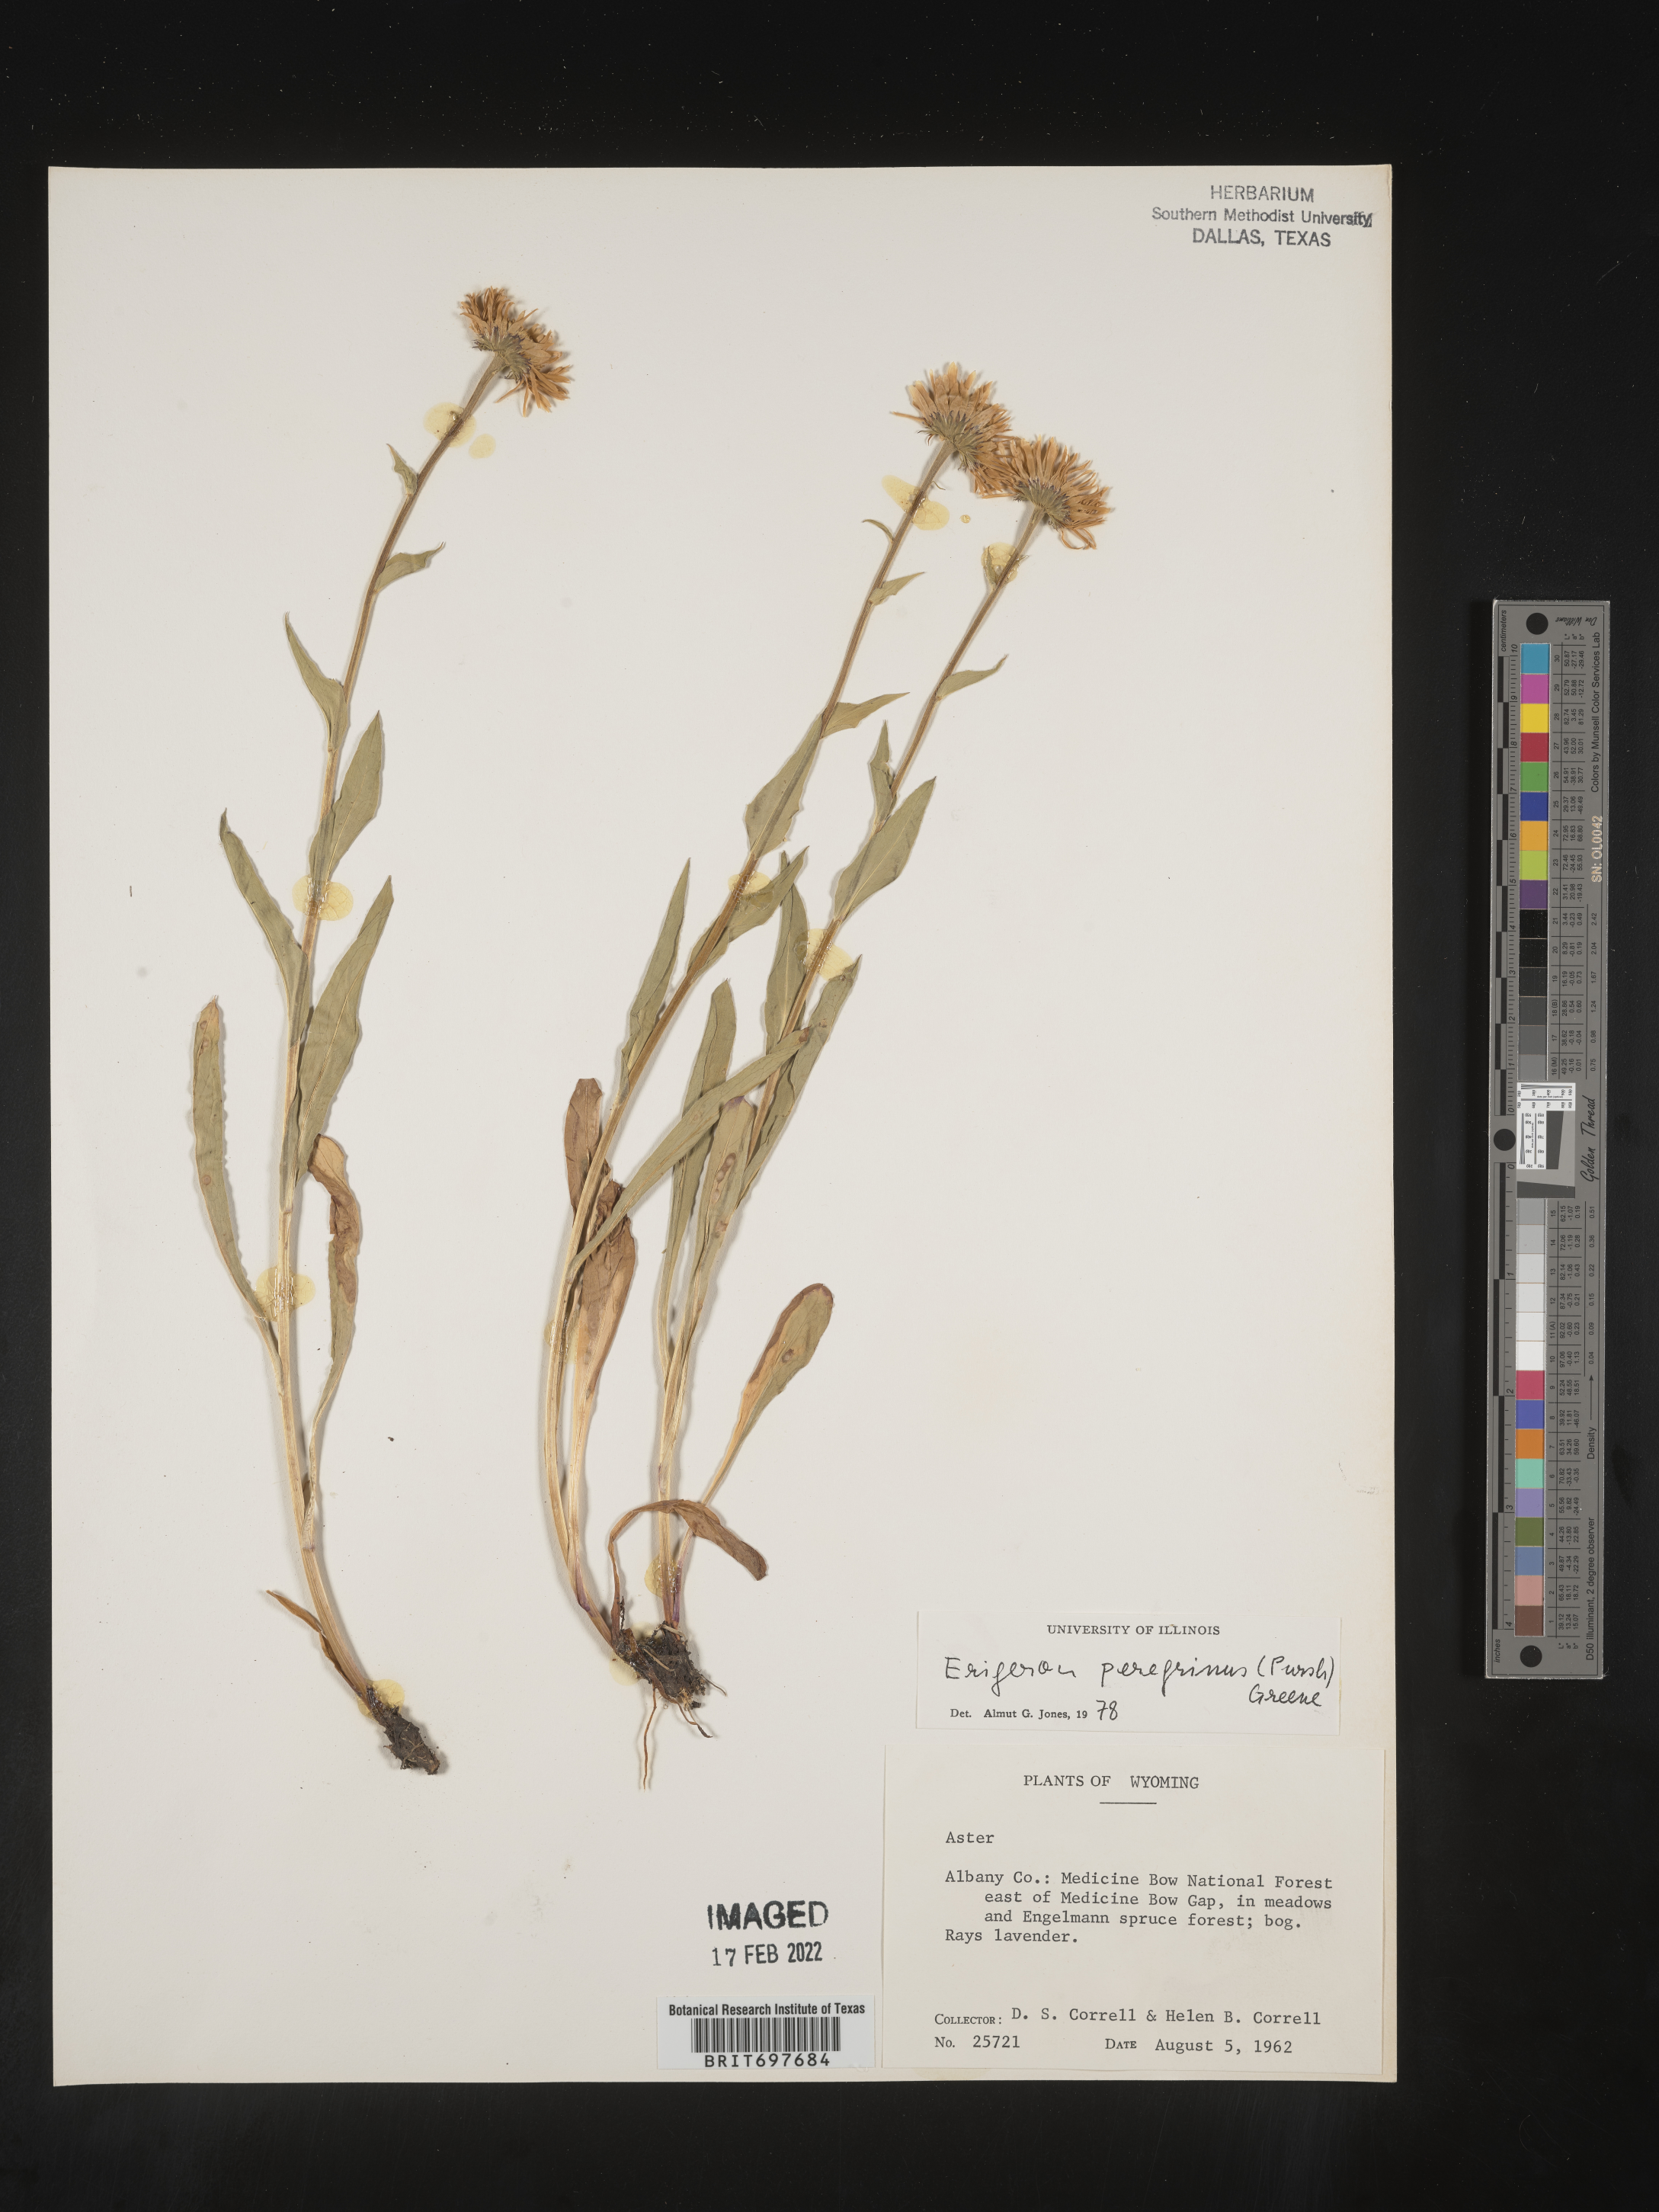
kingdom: Plantae
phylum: Tracheophyta
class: Magnoliopsida
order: Asterales
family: Asteraceae
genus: Erigeron
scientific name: Erigeron glacialis
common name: Subalpine fleabane
